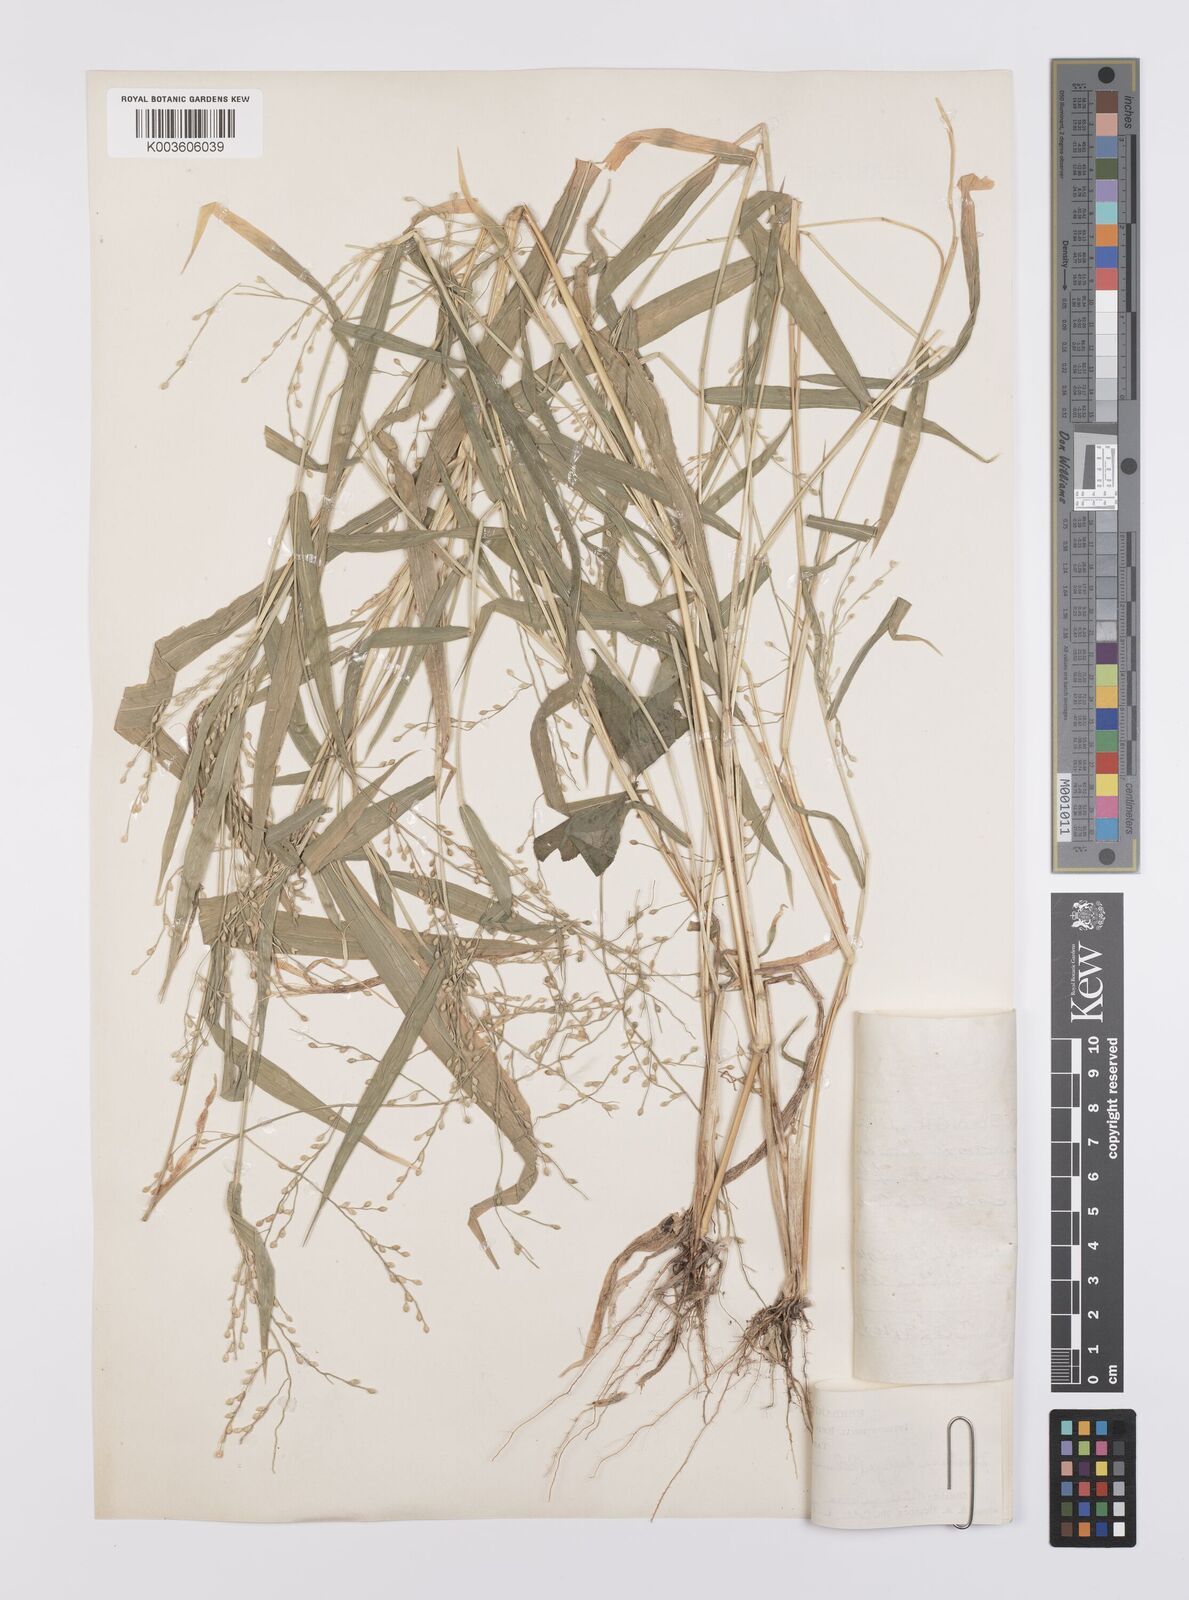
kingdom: Plantae
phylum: Tracheophyta
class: Liliopsida
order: Poales
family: Poaceae
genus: Urochloa
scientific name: Urochloa deflexa
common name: Guinea millet
